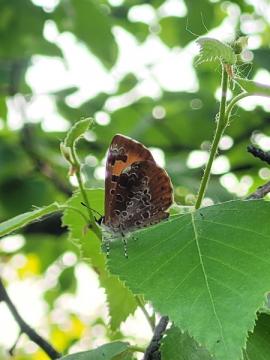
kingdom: Animalia
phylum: Arthropoda
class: Insecta
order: Lepidoptera
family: Lycaenidae
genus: Feniseca
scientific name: Feniseca tarquinius
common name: Harvester
